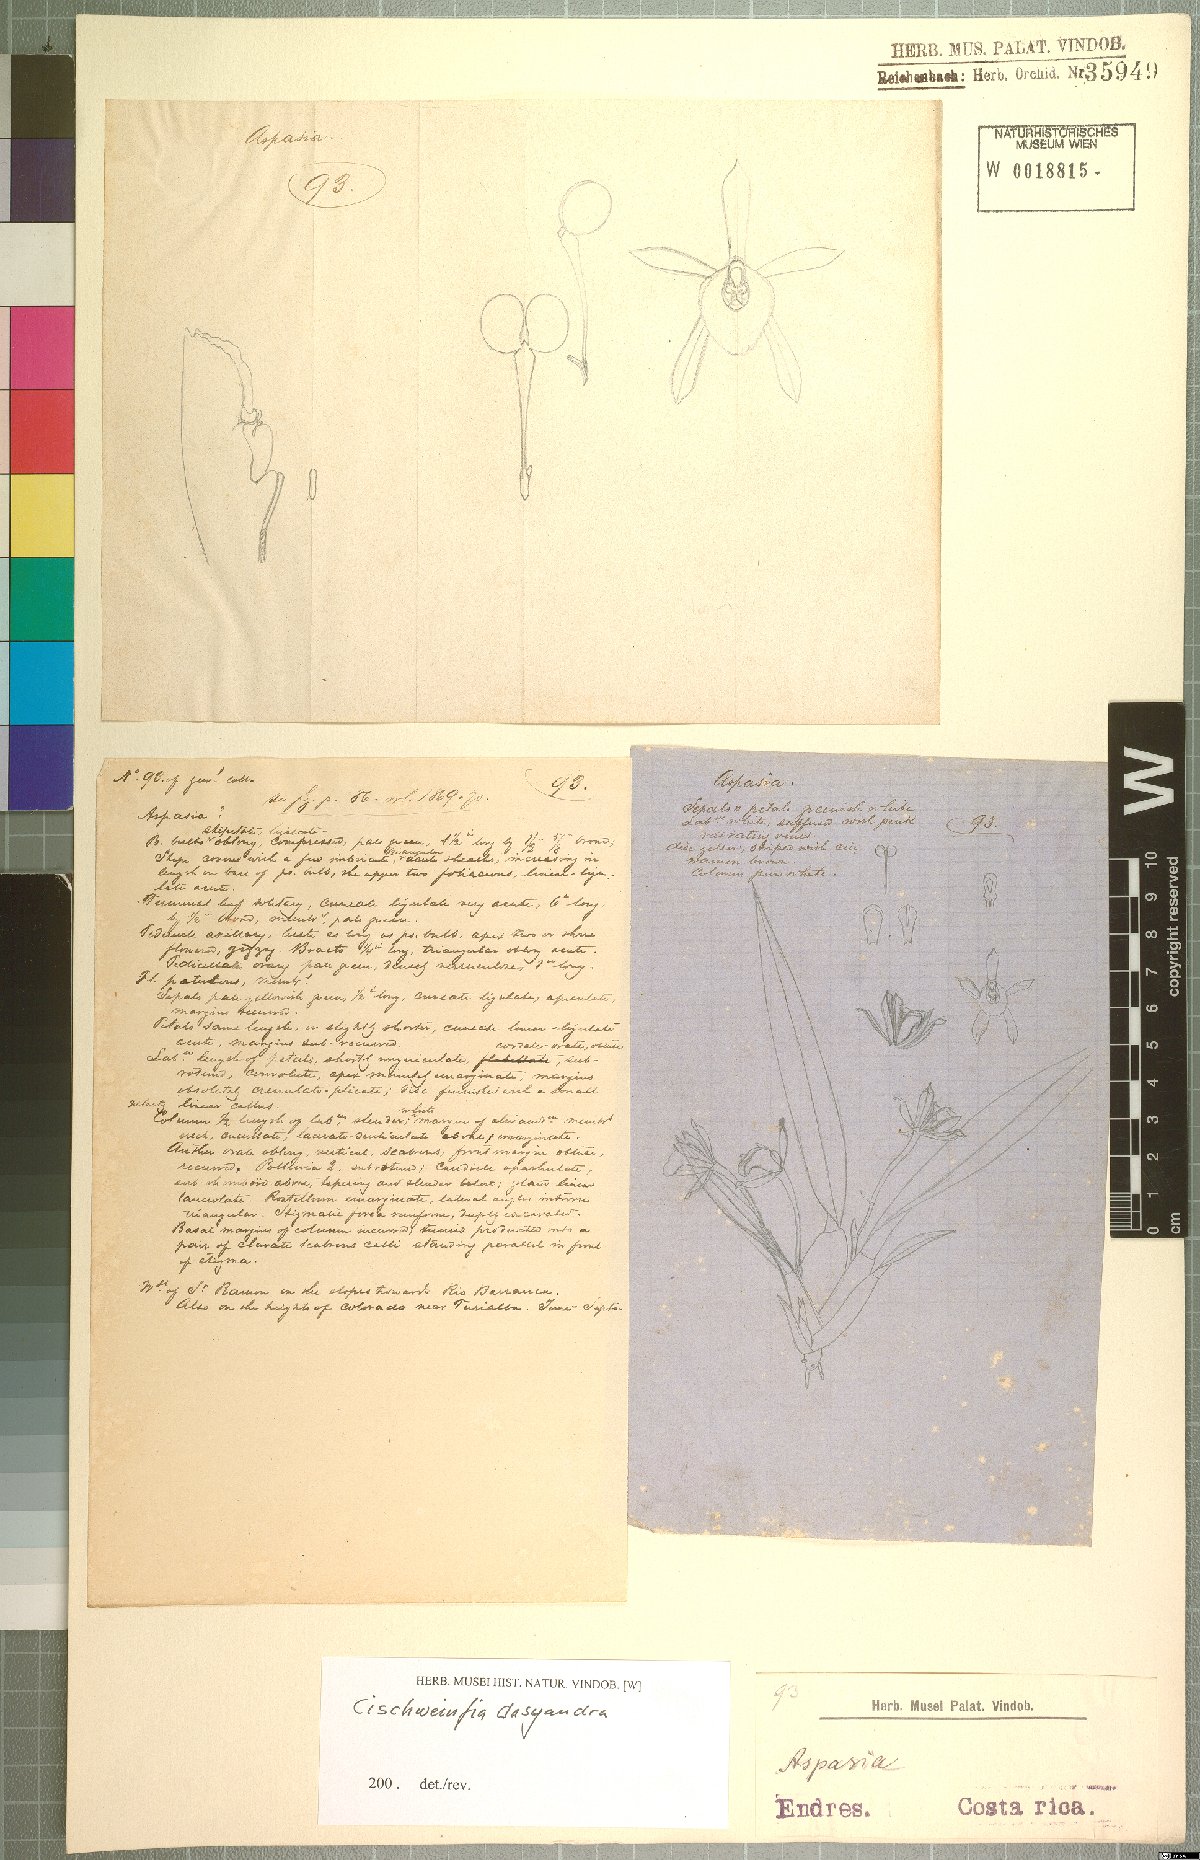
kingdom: Plantae
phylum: Tracheophyta
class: Liliopsida
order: Asparagales
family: Orchidaceae
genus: Cischweinfia
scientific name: Cischweinfia dasyandra
